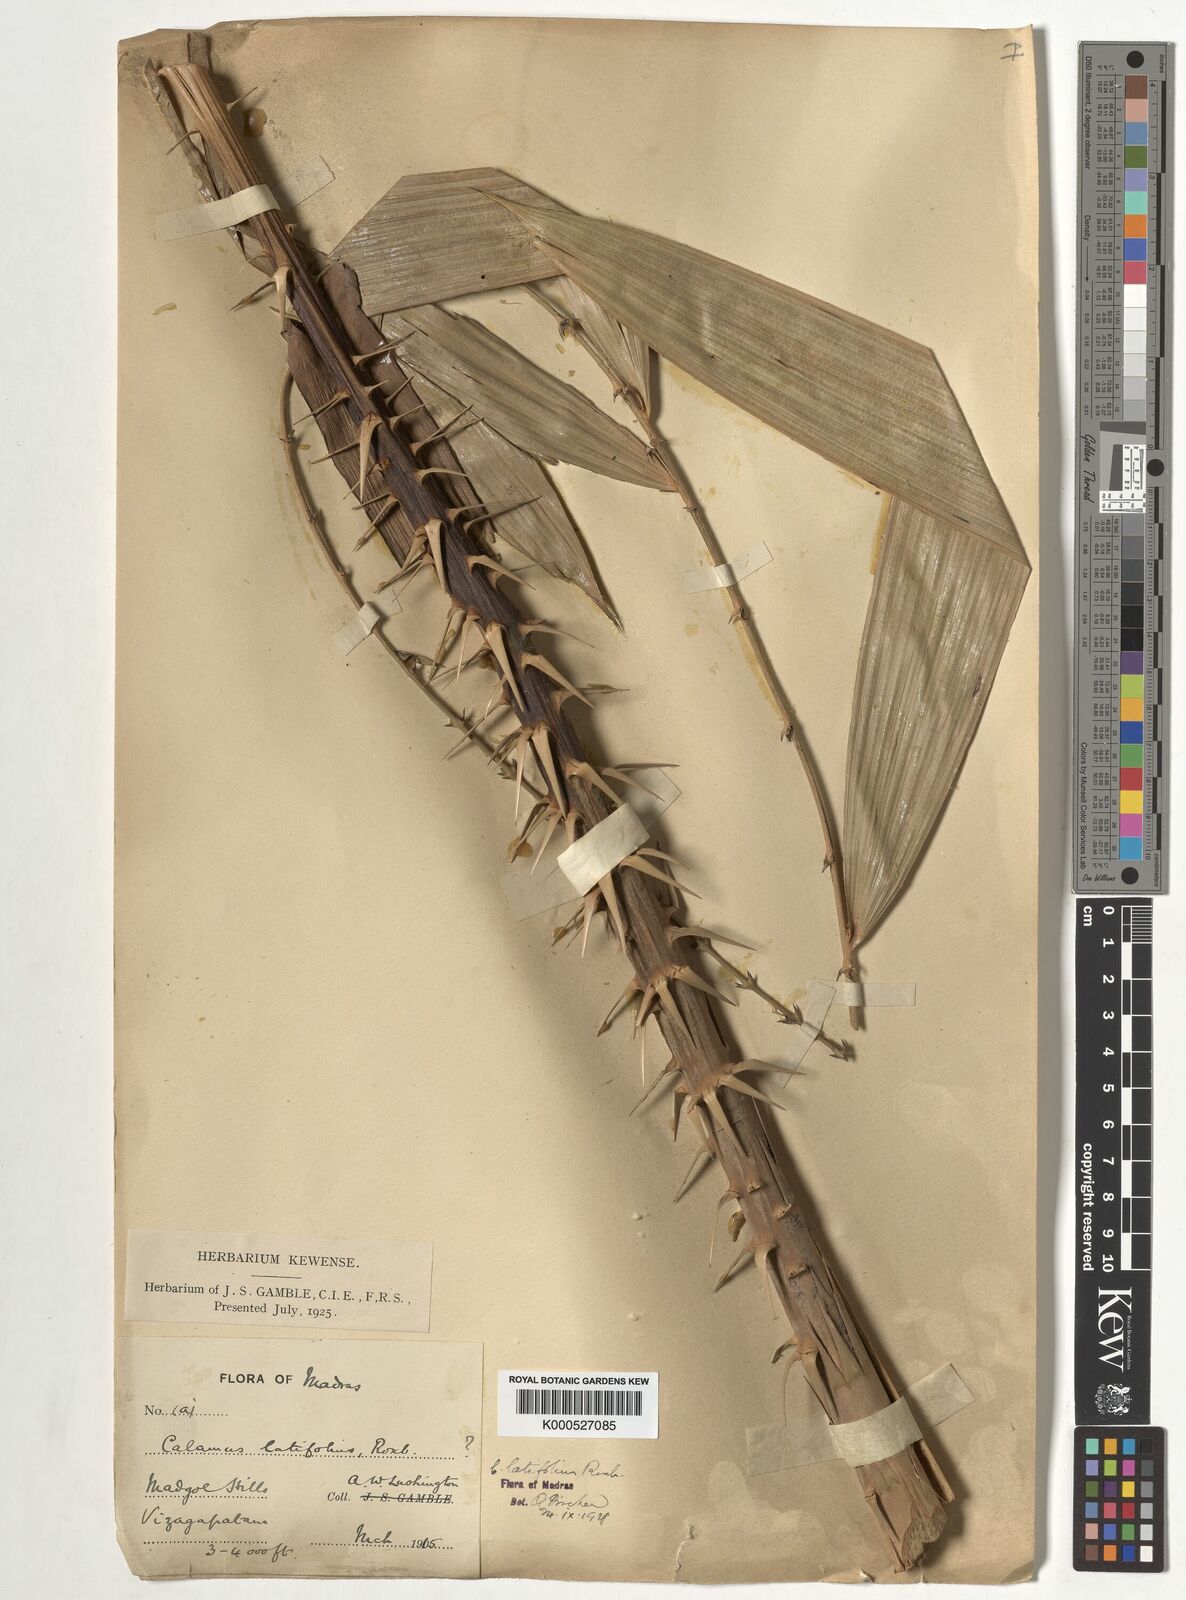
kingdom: Plantae
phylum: Tracheophyta
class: Liliopsida
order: Arecales
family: Arecaceae
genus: Calamus
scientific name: Calamus latifolius
